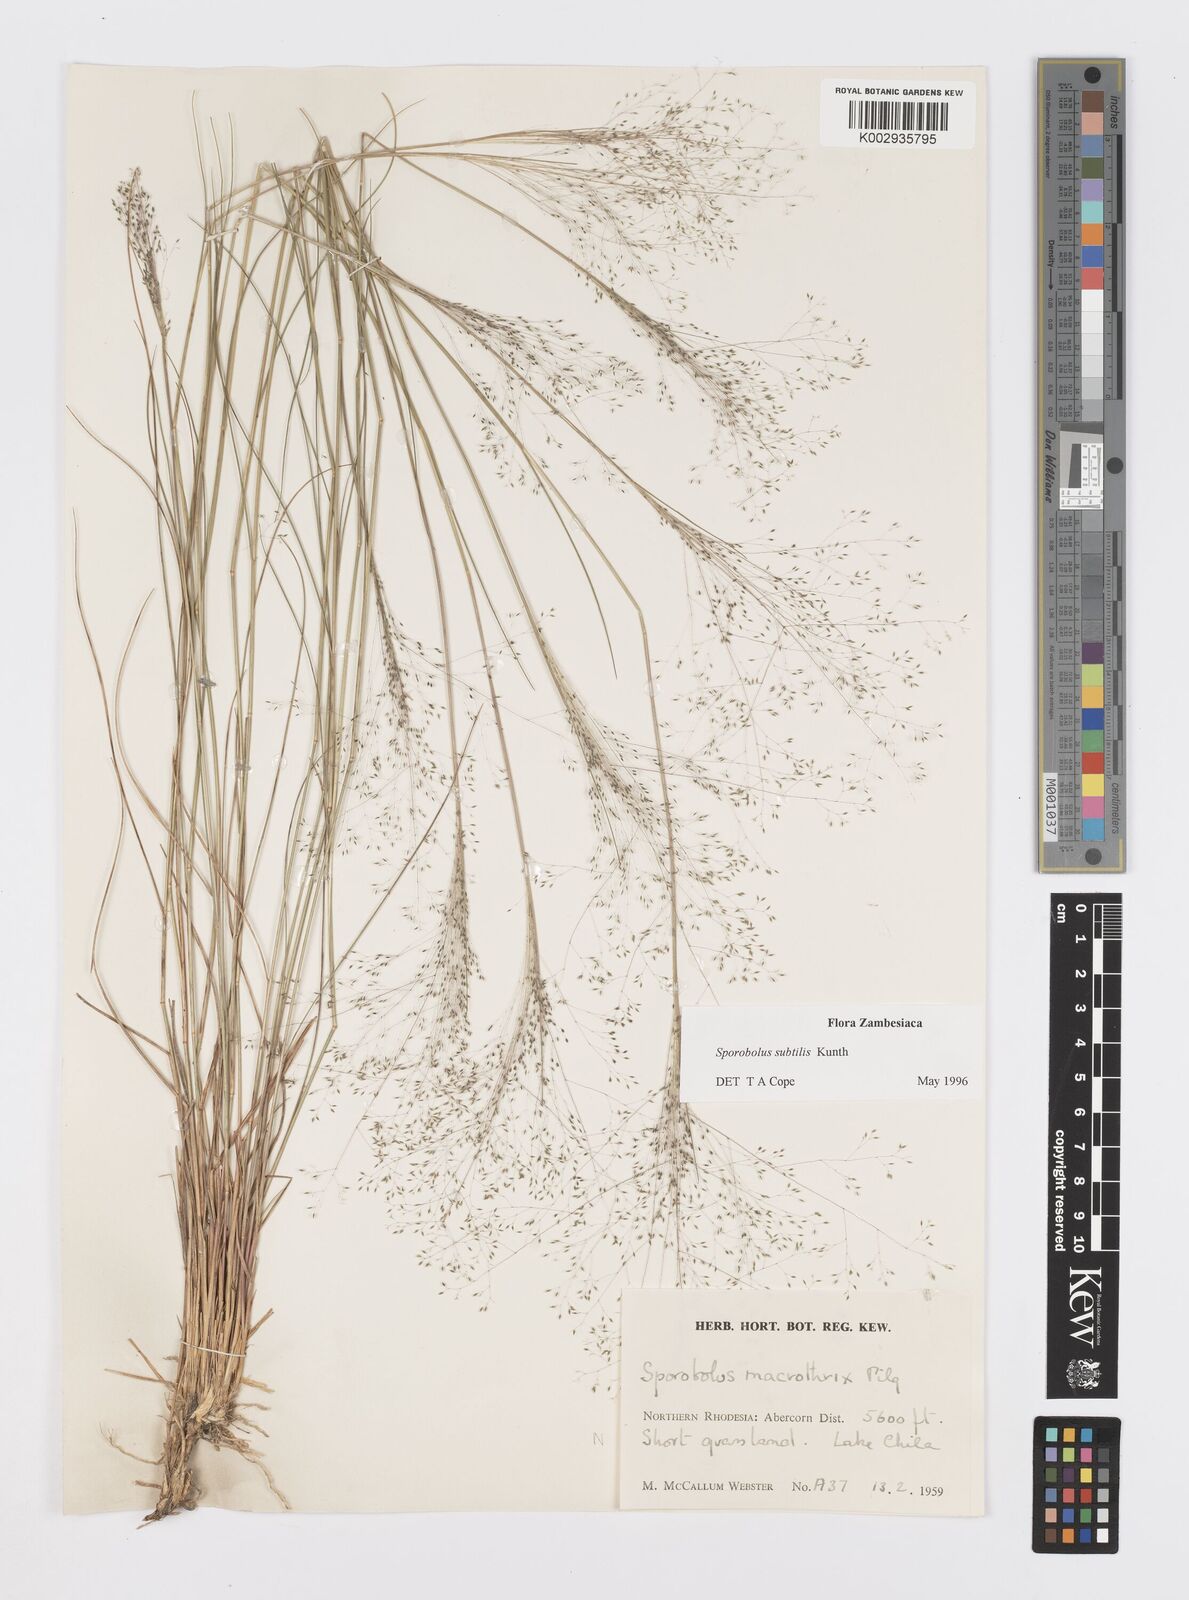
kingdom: Plantae
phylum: Tracheophyta
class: Liliopsida
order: Poales
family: Poaceae
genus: Sporobolus
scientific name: Sporobolus subtilis
